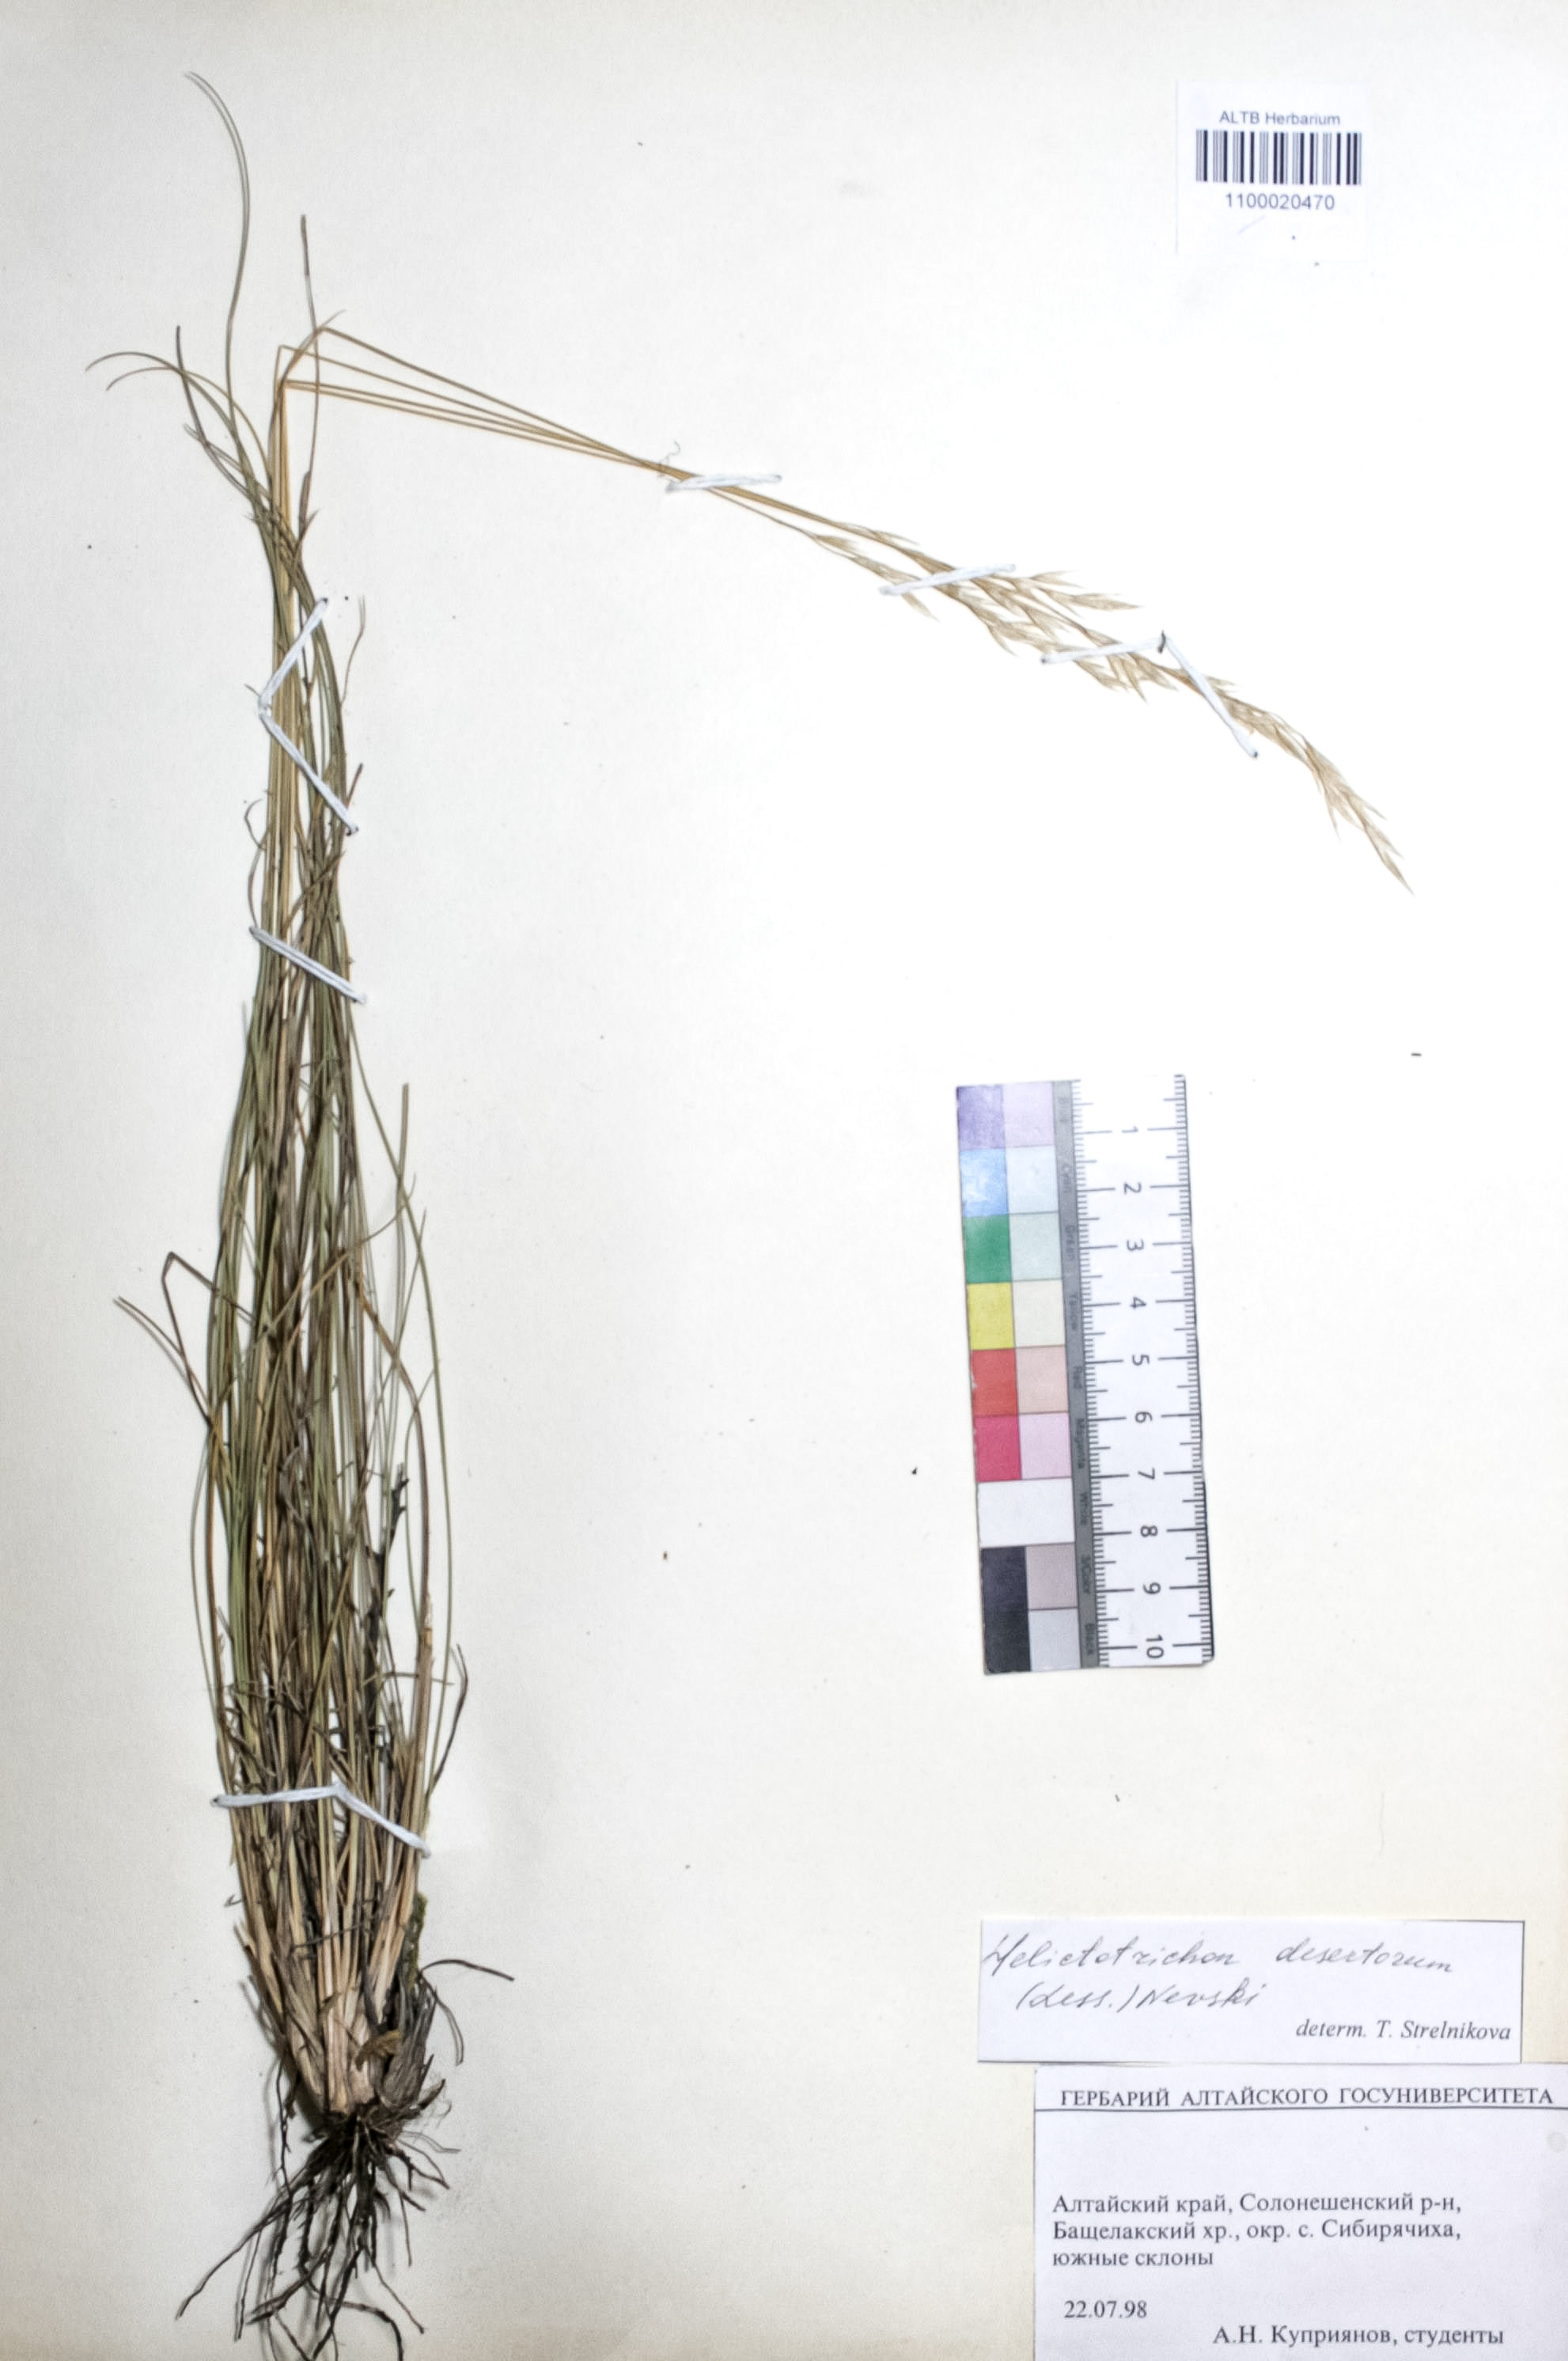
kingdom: Plantae
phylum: Tracheophyta
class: Liliopsida
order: Poales
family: Poaceae
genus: Helictotrichon
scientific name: Helictotrichon desertorum
